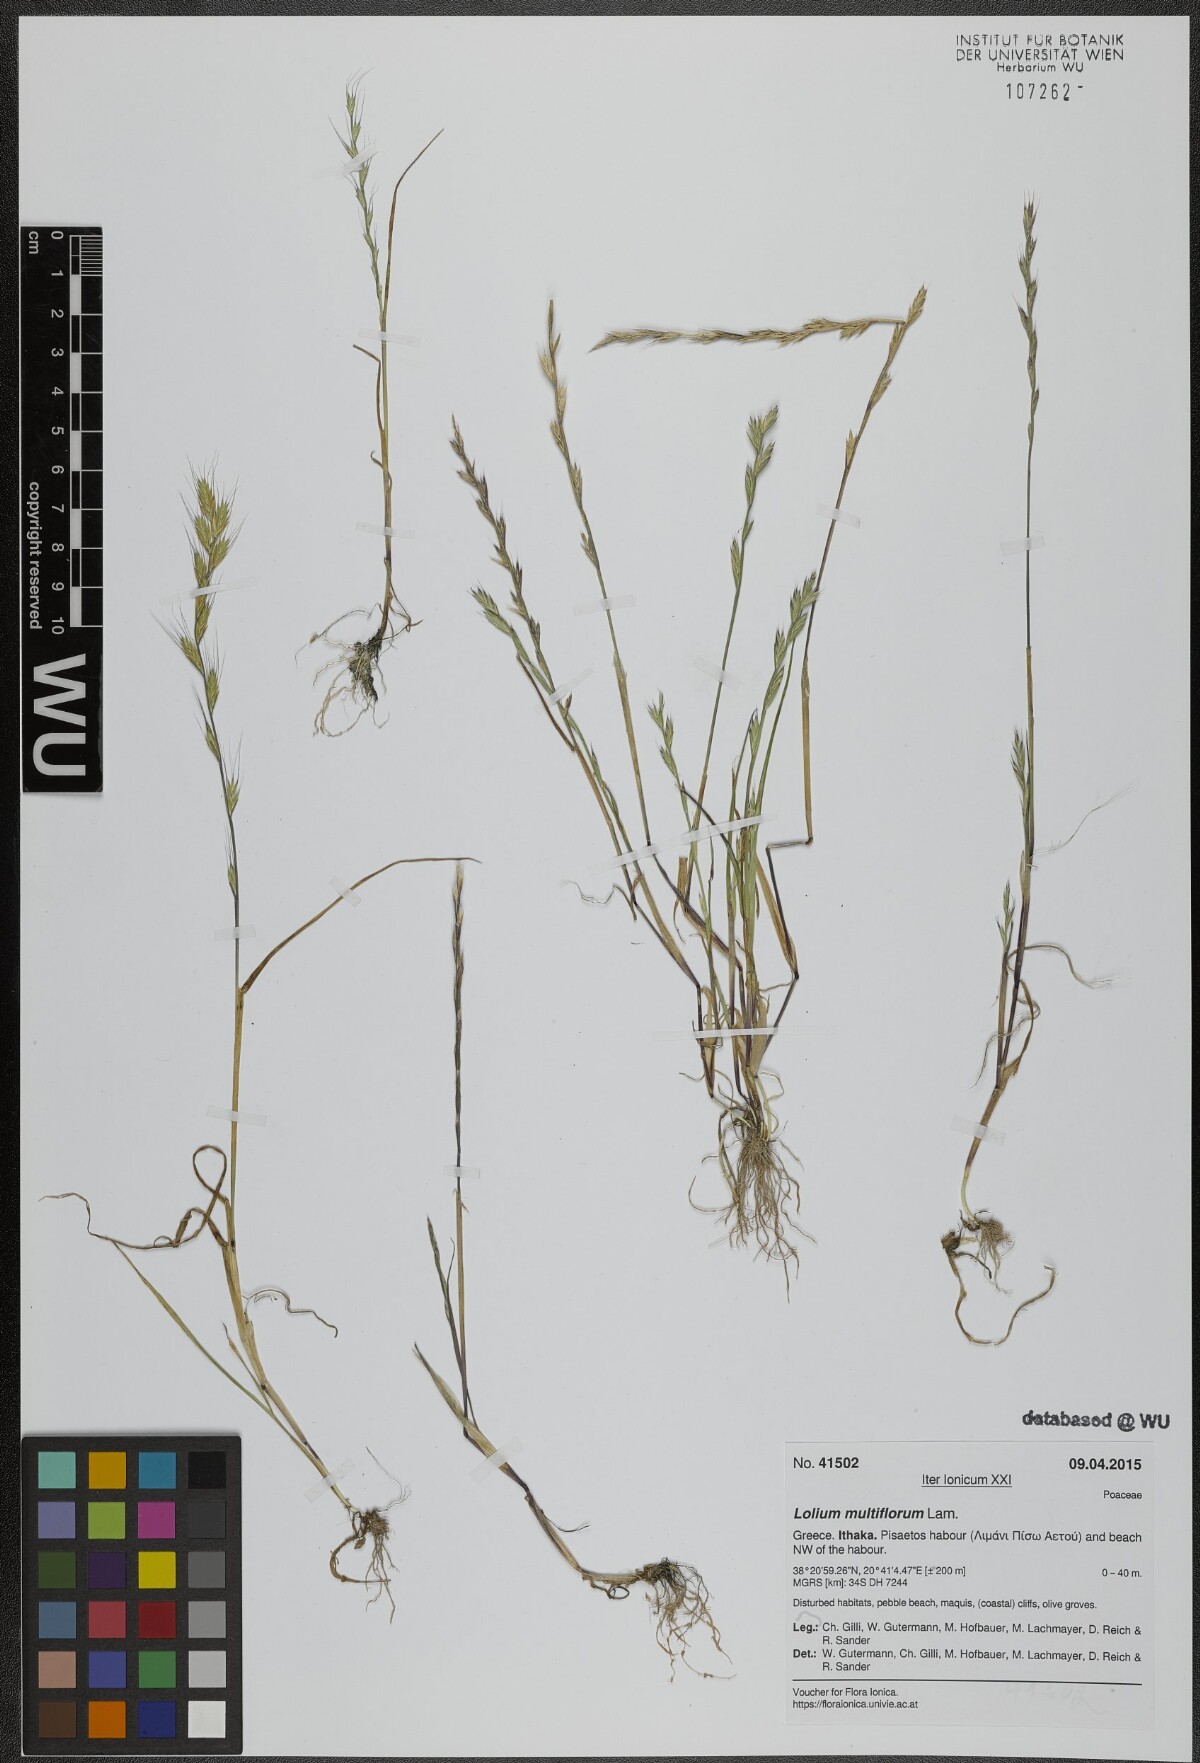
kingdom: Plantae
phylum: Tracheophyta
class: Liliopsida
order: Poales
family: Poaceae
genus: Lolium
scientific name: Lolium multiflorum
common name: Annual ryegrass
